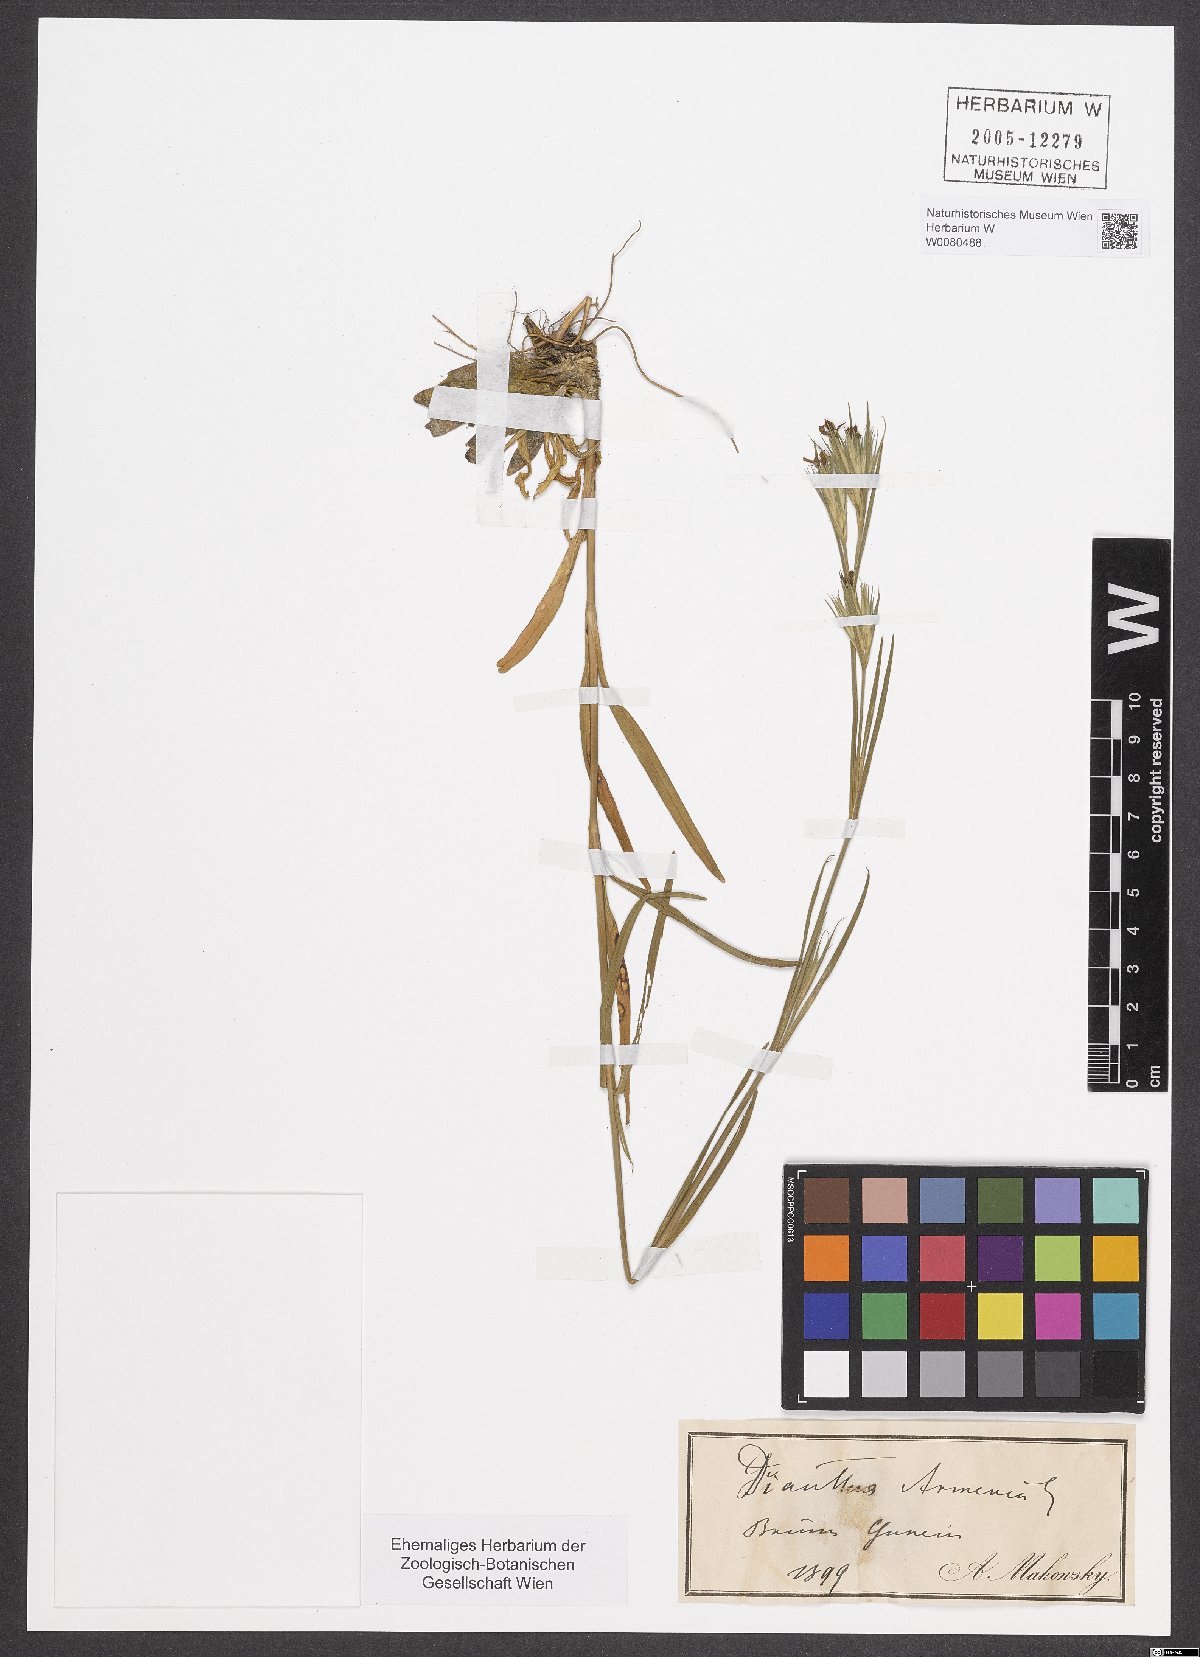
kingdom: Plantae
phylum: Tracheophyta
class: Magnoliopsida
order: Caryophyllales
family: Caryophyllaceae
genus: Dianthus
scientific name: Dianthus armeria
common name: Deptford pink
